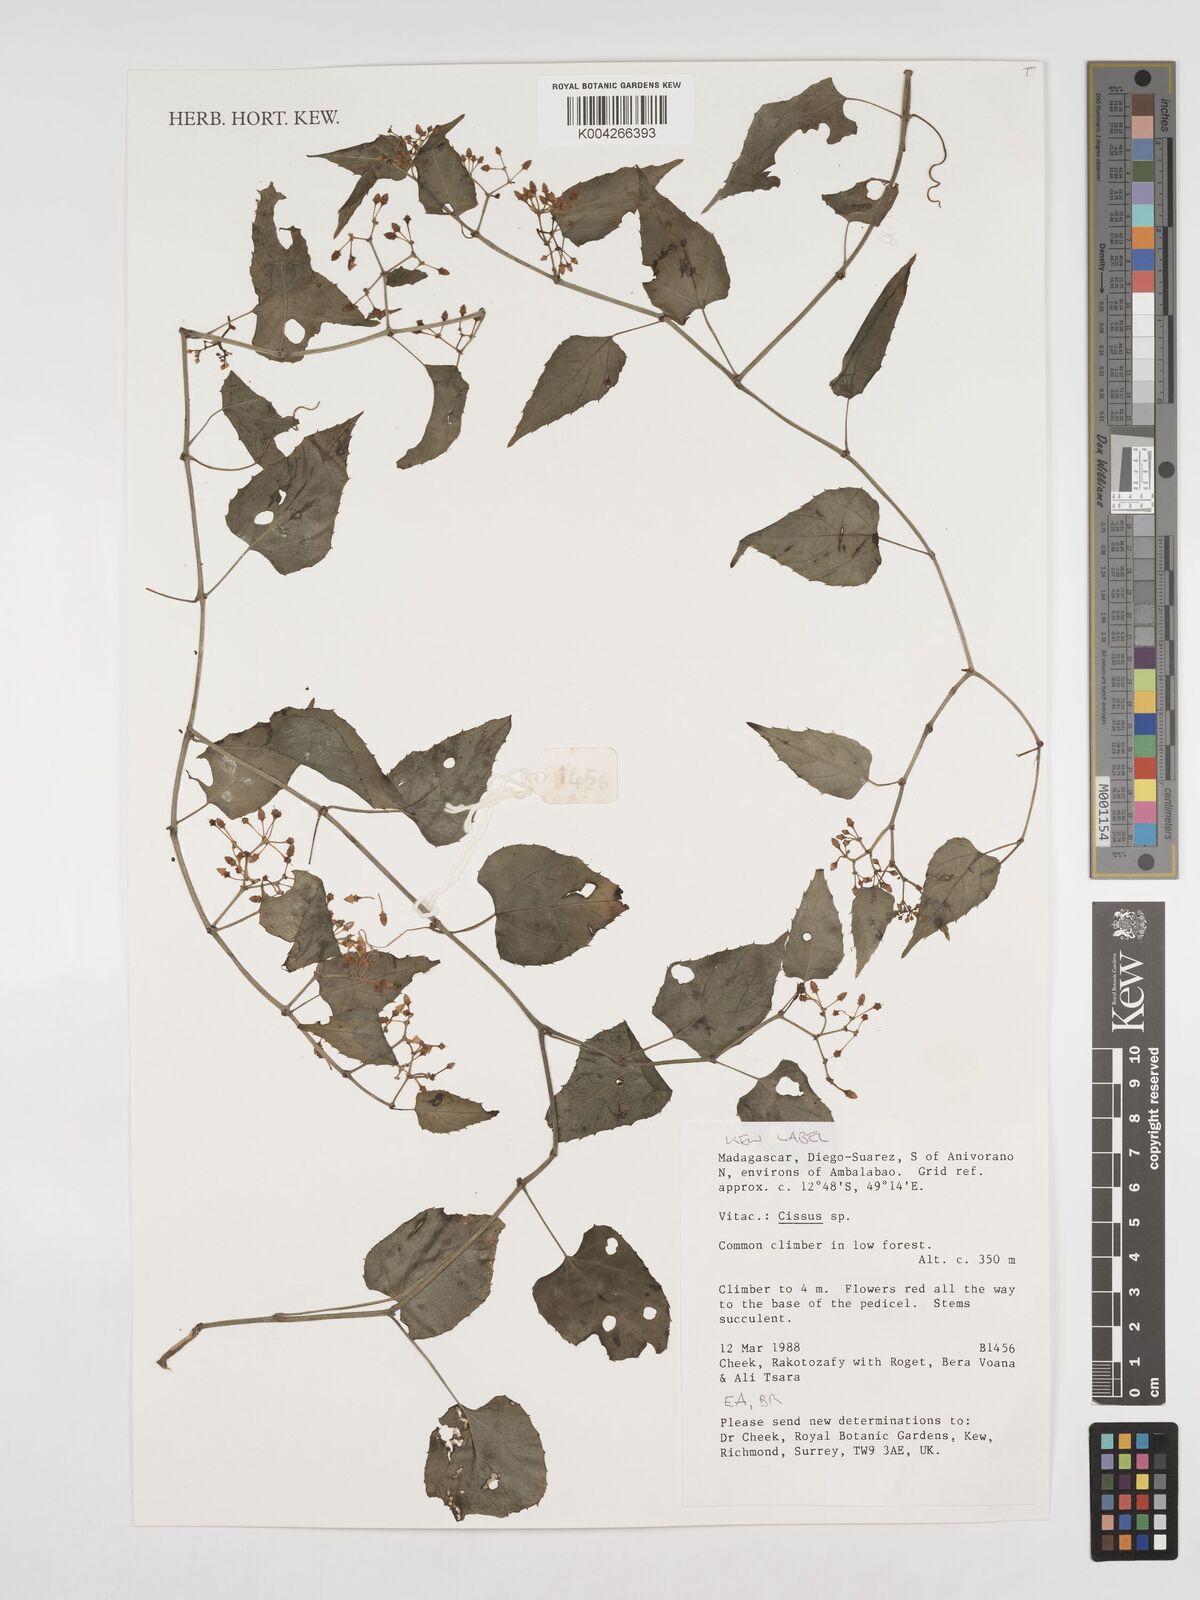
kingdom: Plantae
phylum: Tracheophyta
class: Magnoliopsida
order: Vitales
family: Vitaceae
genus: Cissus
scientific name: Cissus
